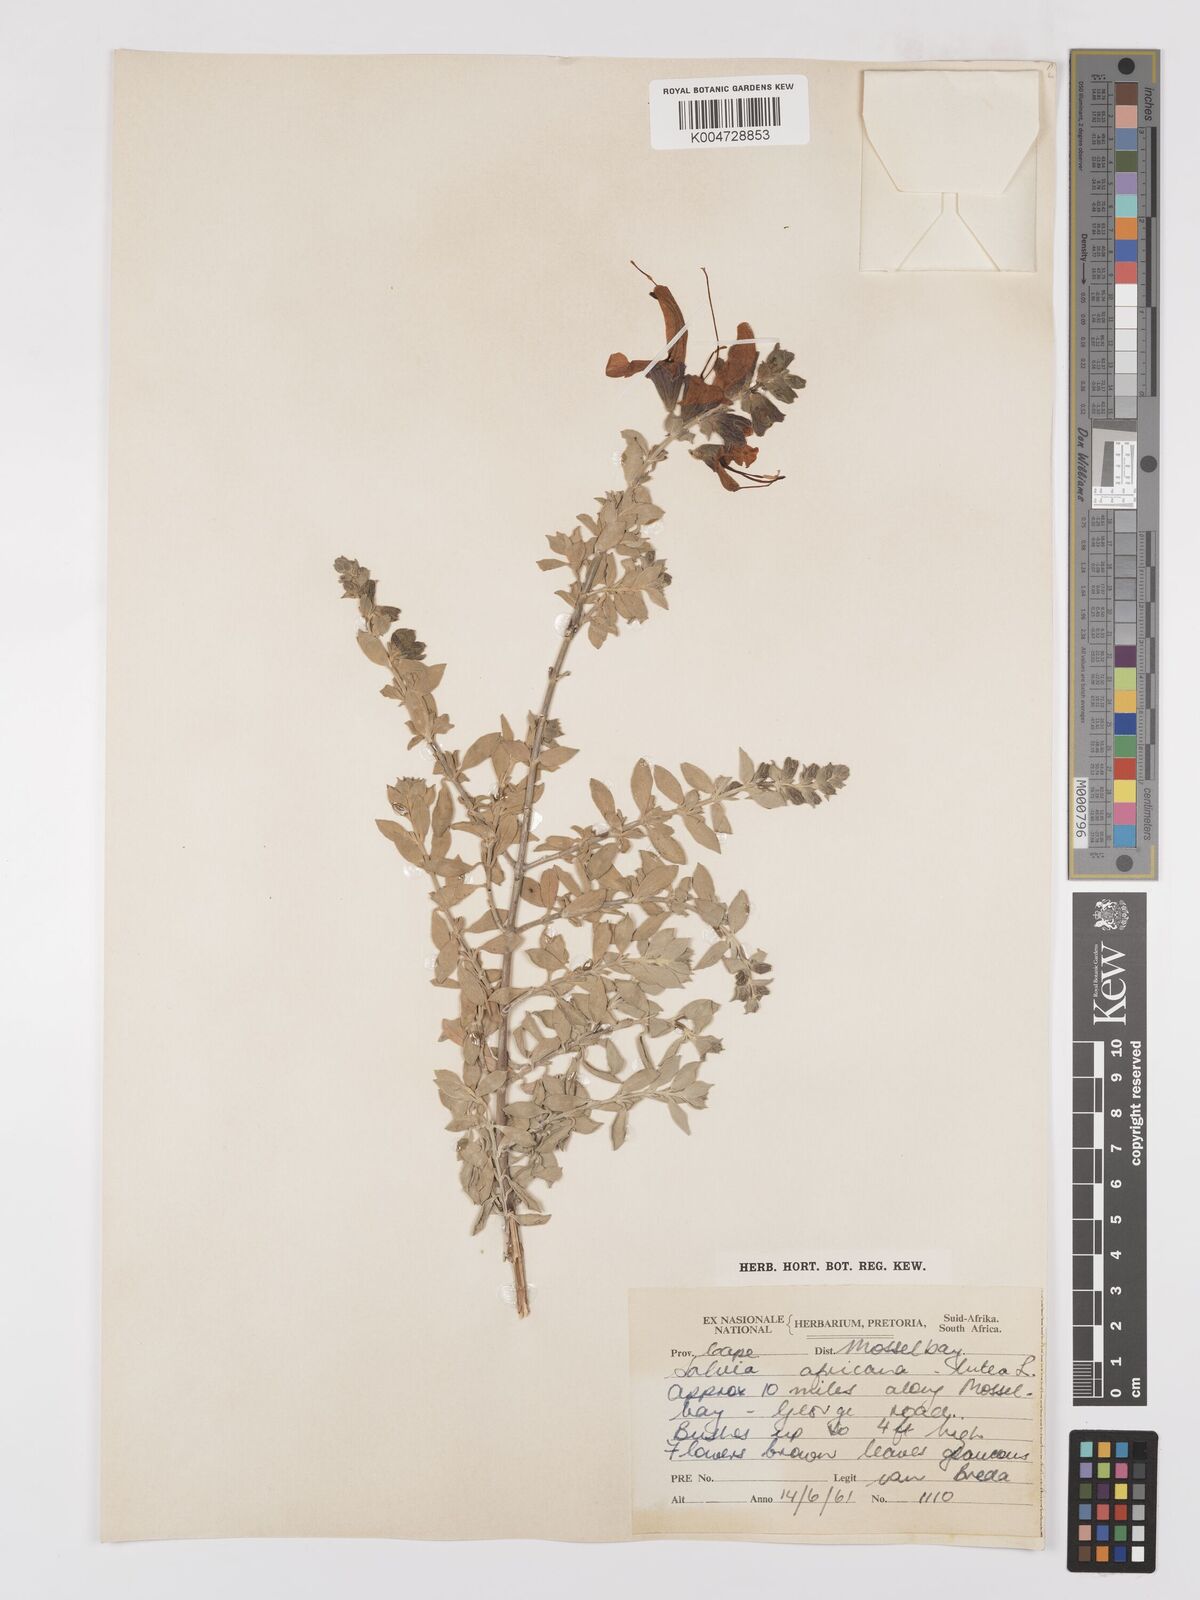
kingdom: Plantae
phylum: Tracheophyta
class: Magnoliopsida
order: Lamiales
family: Lamiaceae
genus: Salvia
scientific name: Salvia aurea
